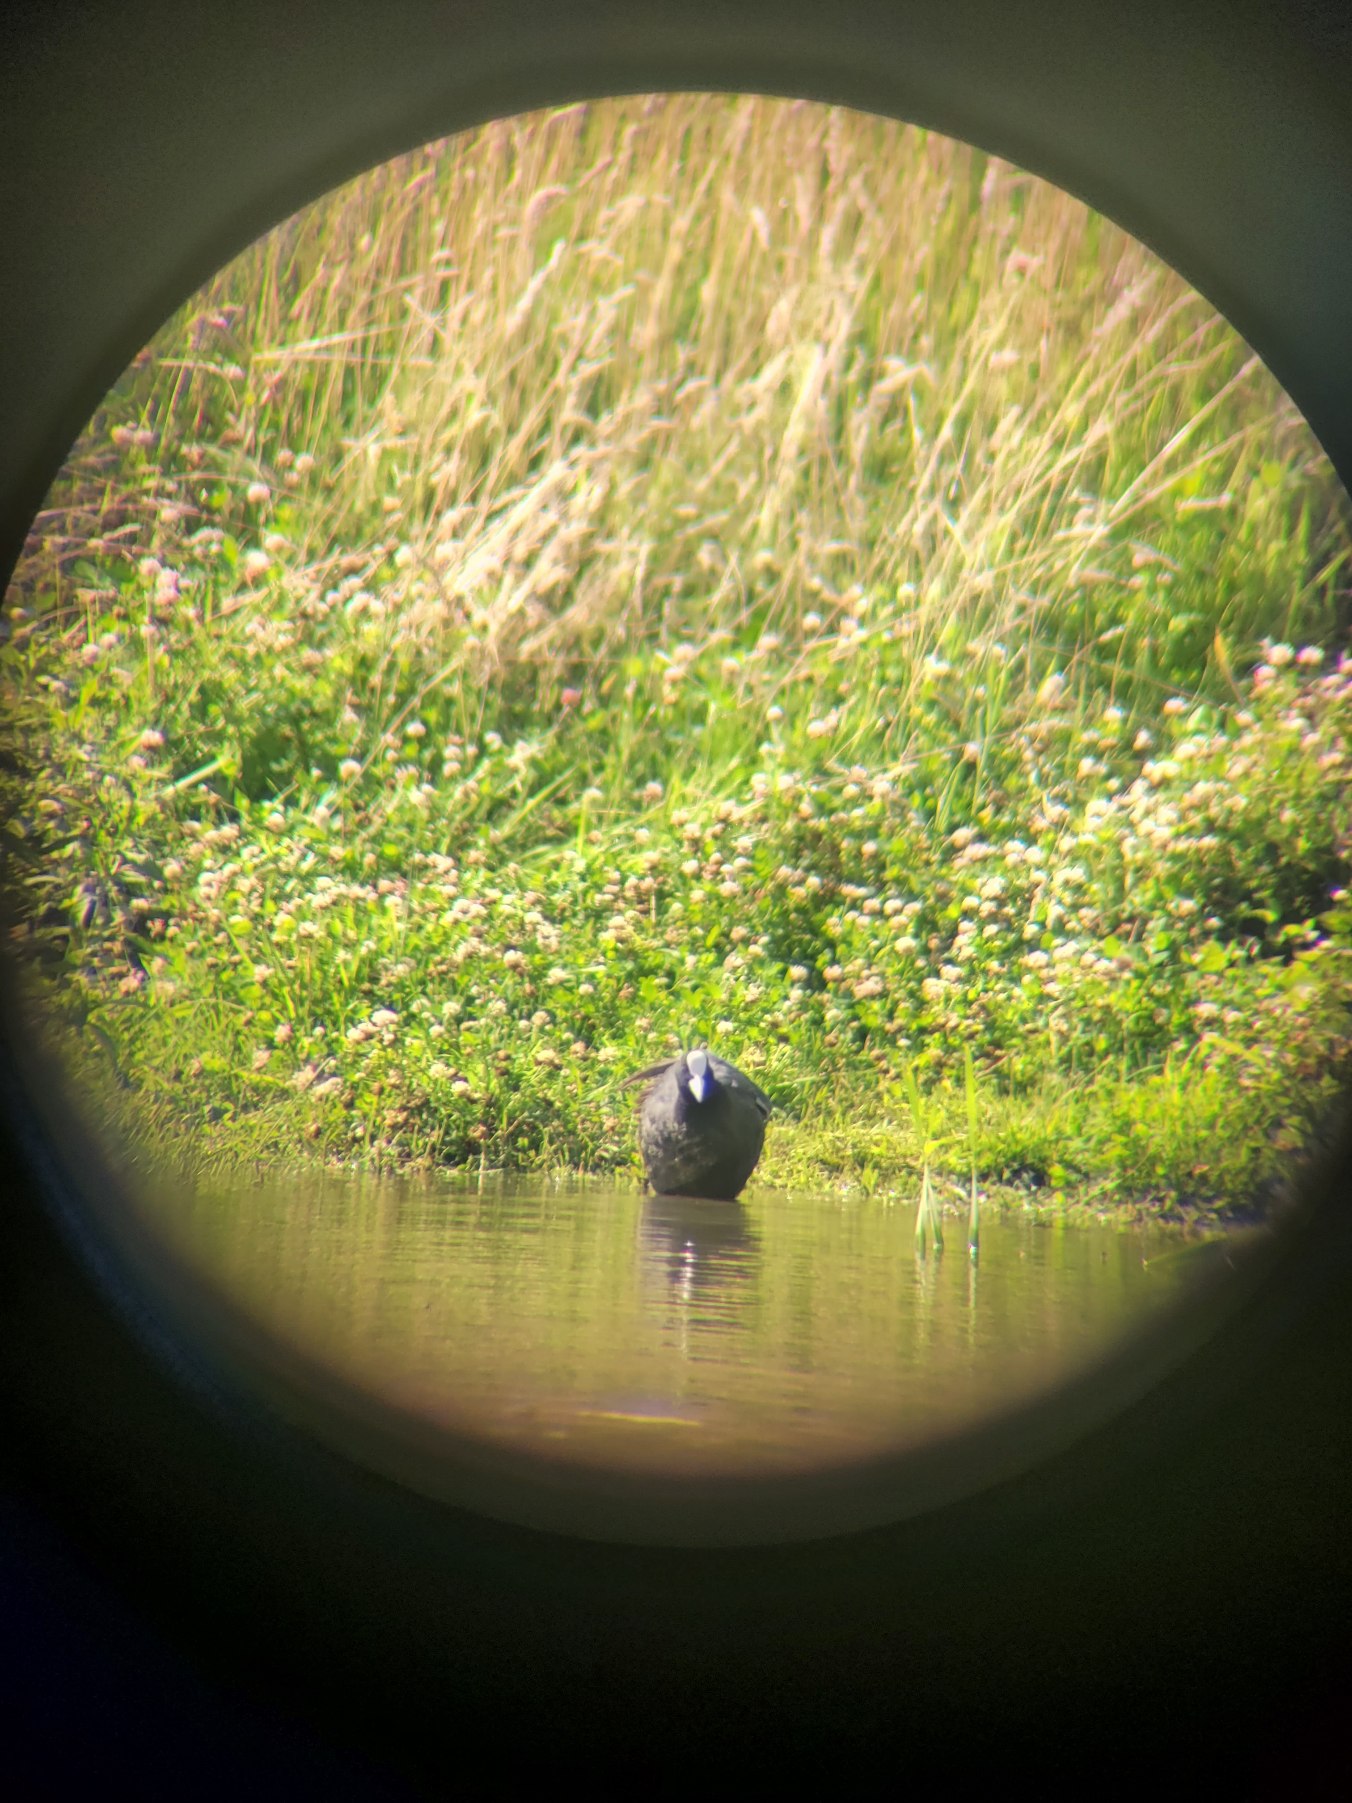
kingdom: Animalia
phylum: Chordata
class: Aves
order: Gruiformes
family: Rallidae
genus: Fulica
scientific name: Fulica atra
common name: Blishøne
